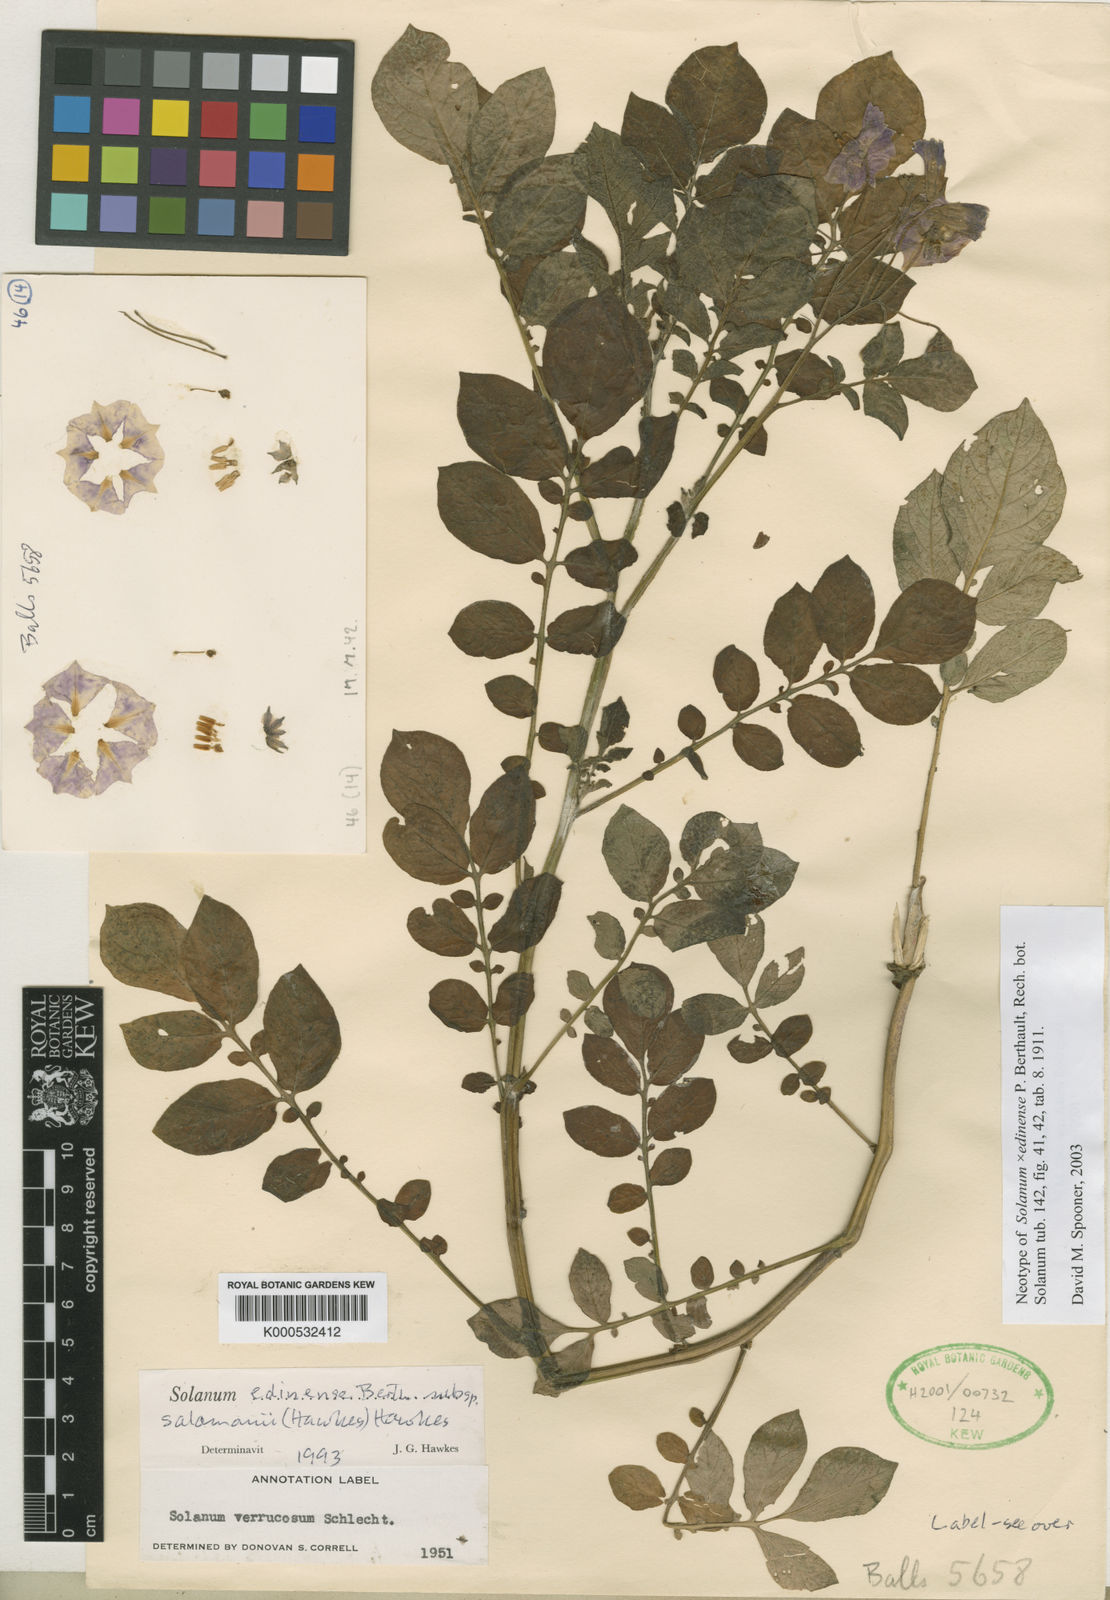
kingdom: Plantae
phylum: Tracheophyta
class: Magnoliopsida
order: Solanales
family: Solanaceae
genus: Solanum
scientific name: Solanum edinense
